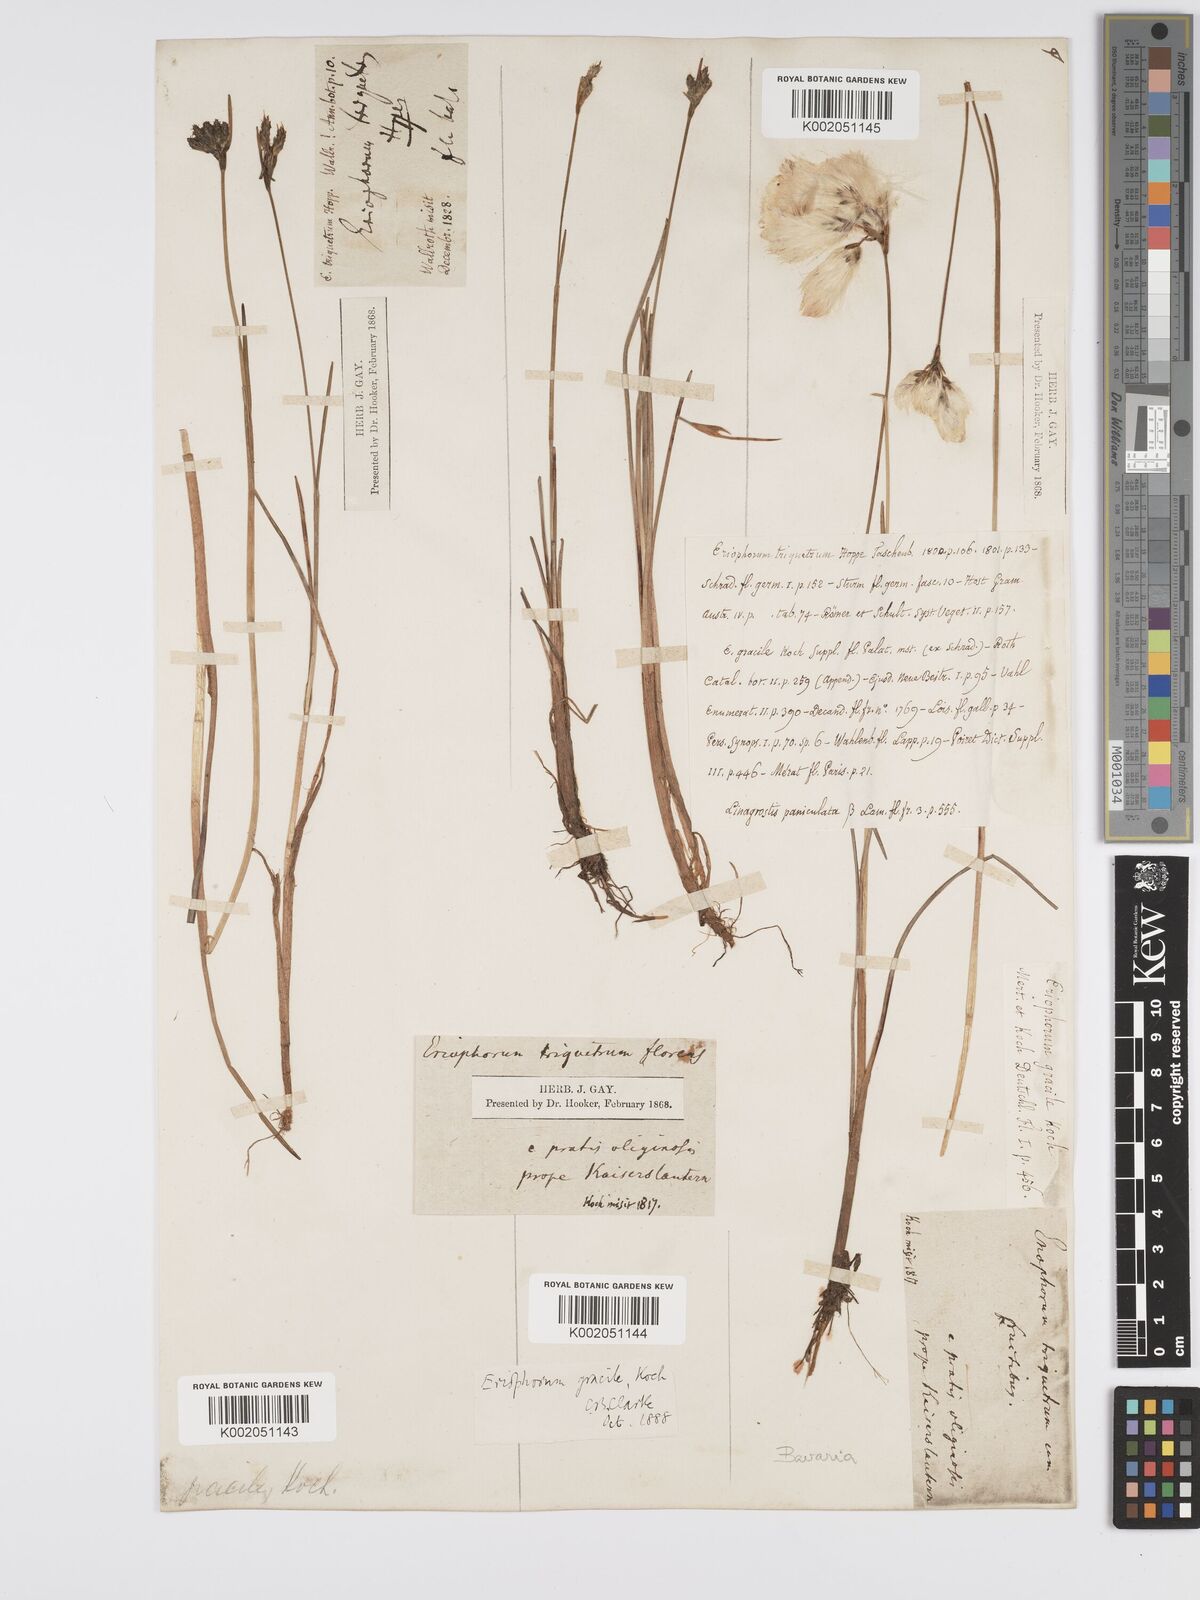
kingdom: Plantae
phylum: Tracheophyta
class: Liliopsida
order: Poales
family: Cyperaceae
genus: Eriophorum
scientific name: Eriophorum gracile
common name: Slender cottongrass
